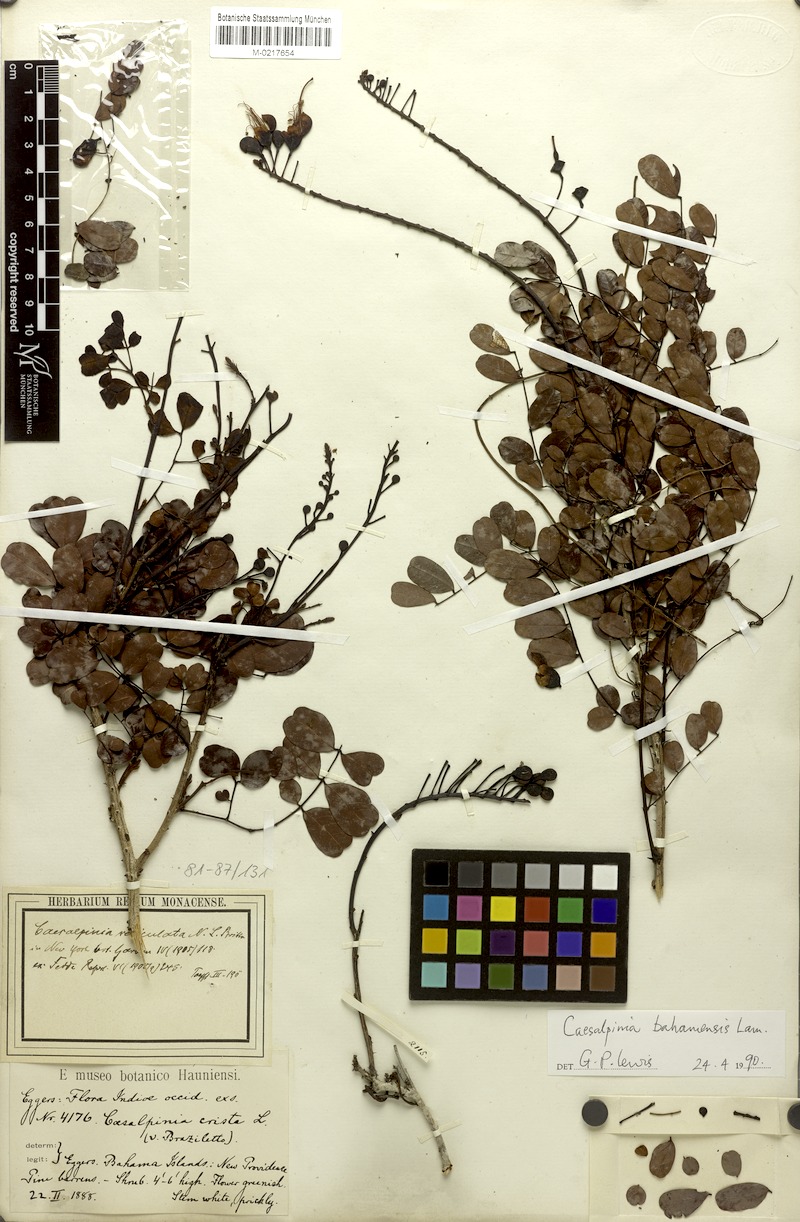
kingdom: Plantae
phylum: Tracheophyta
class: Magnoliopsida
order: Fabales
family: Fabaceae
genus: Caesalpinia
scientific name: Caesalpinia bahamensis
